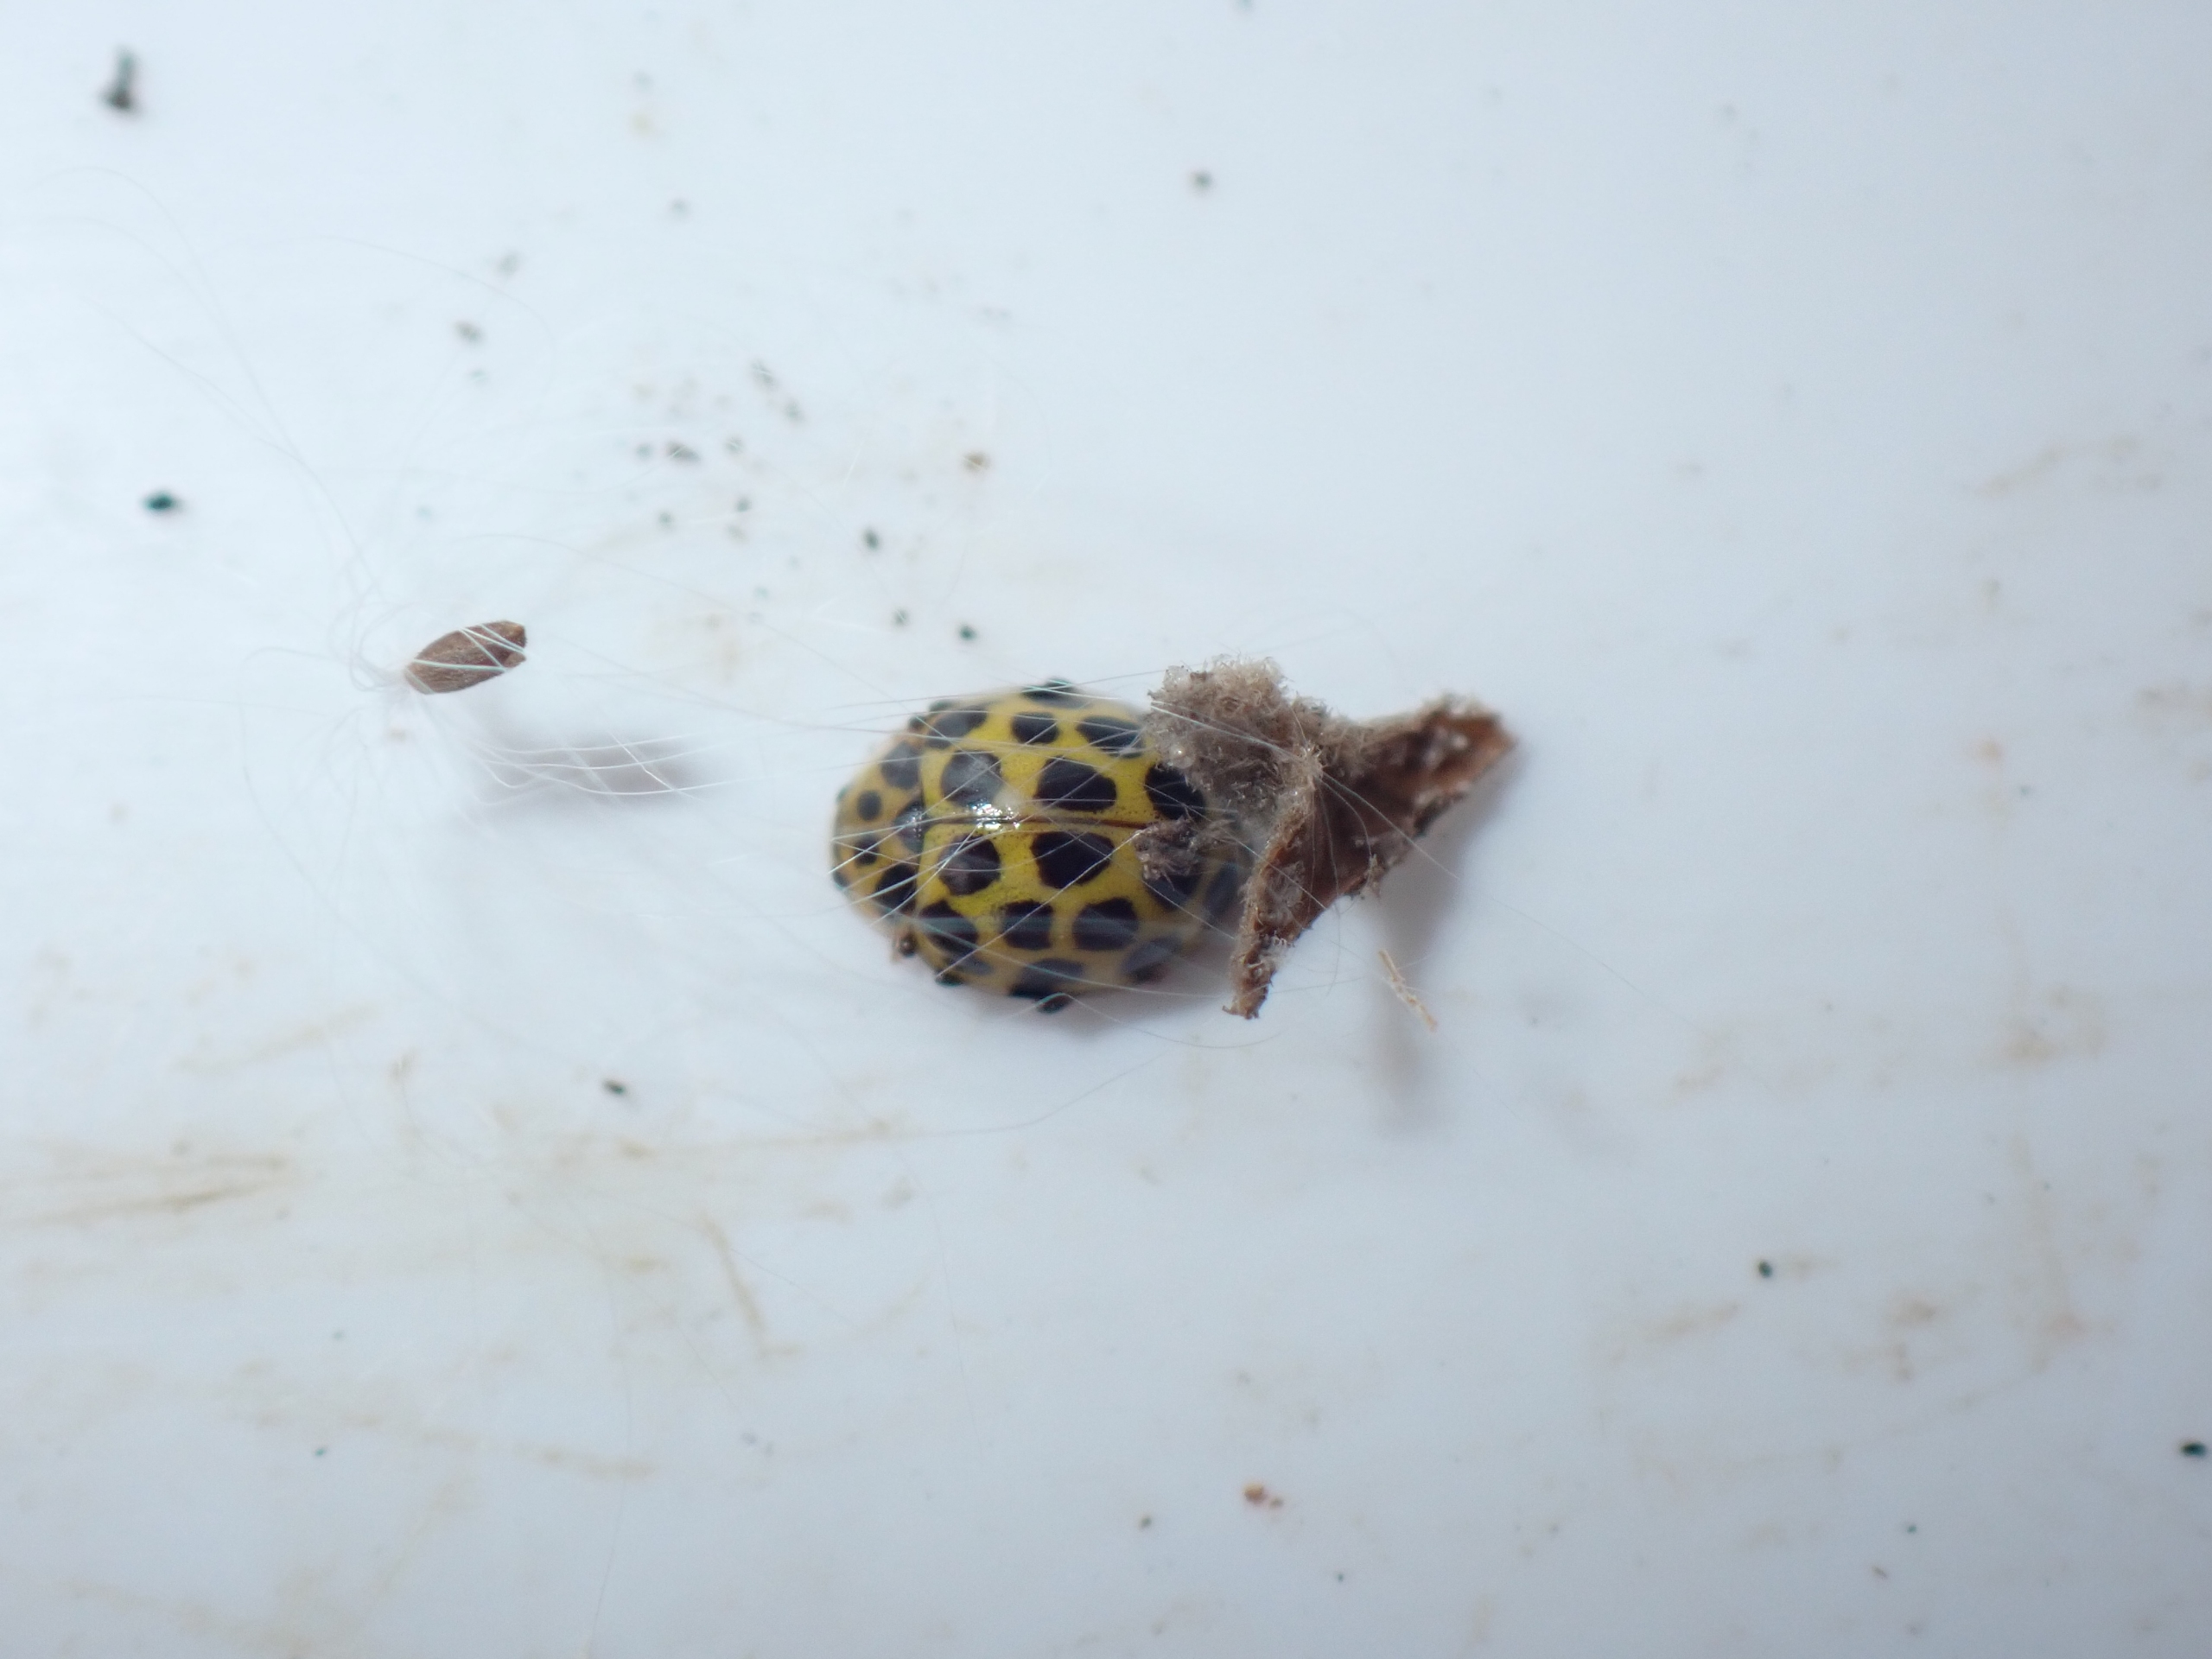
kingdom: Animalia
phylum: Arthropoda
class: Insecta
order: Coleoptera
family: Coccinellidae
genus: Psyllobora
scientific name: Psyllobora vigintiduopunctata
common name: Toogtyveplettet mariehøne
